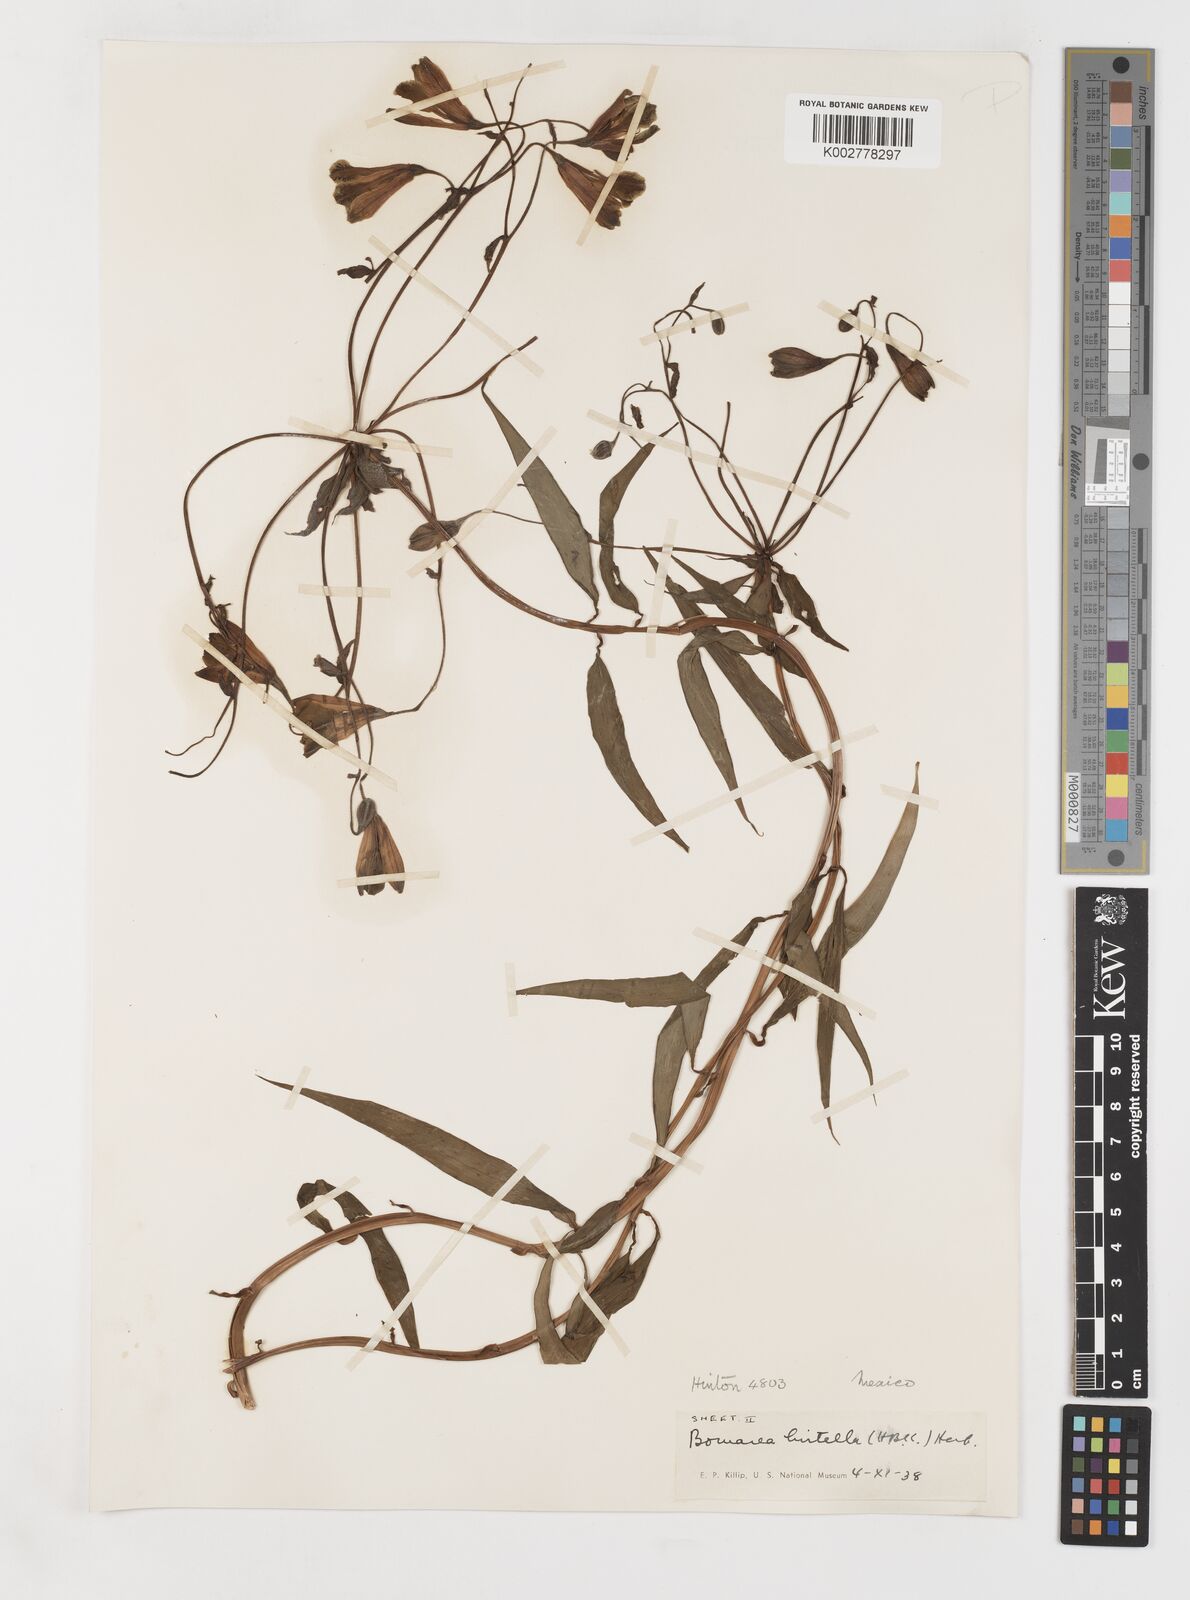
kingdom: Plantae
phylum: Tracheophyta
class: Liliopsida
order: Liliales
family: Alstroemeriaceae
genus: Bomarea
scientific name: Bomarea edulis
